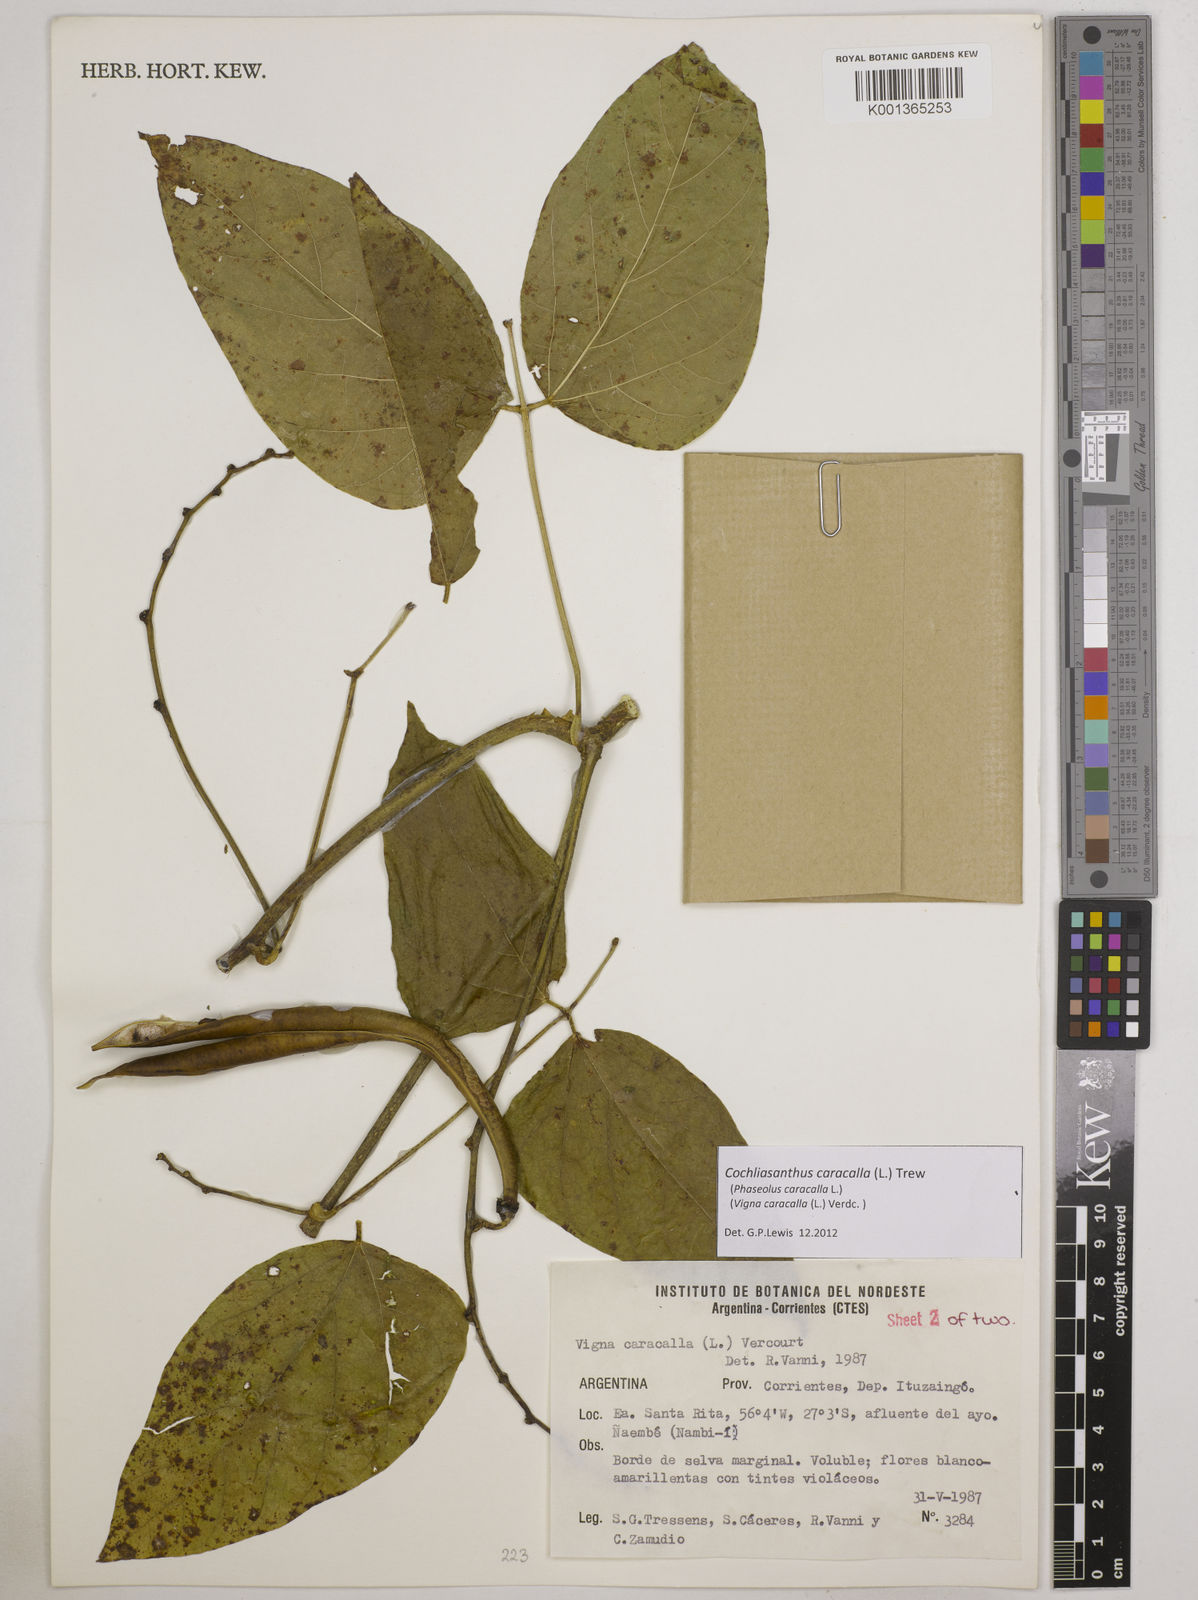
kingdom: Plantae
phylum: Tracheophyta
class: Magnoliopsida
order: Fabales
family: Fabaceae
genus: Cochliasanthus
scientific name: Cochliasanthus caracalla
